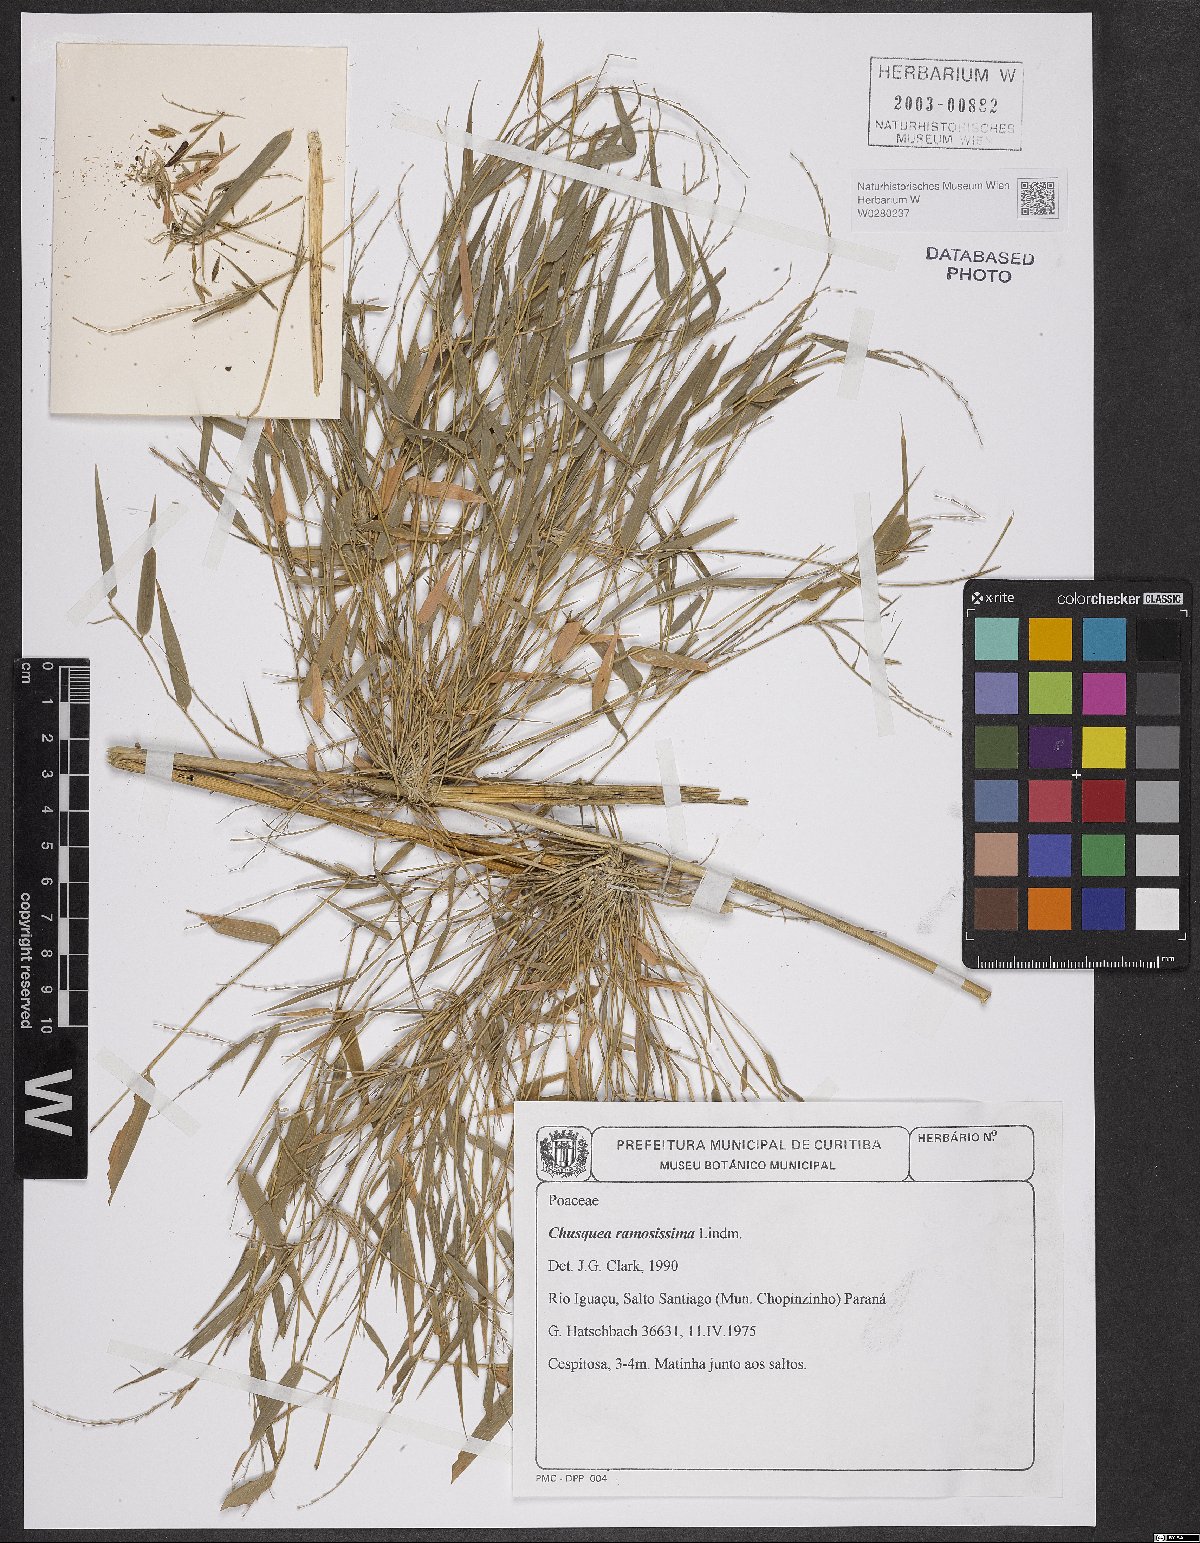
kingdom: Plantae
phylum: Tracheophyta
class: Liliopsida
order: Poales
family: Poaceae
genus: Chusquea
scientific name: Chusquea ramosissima
